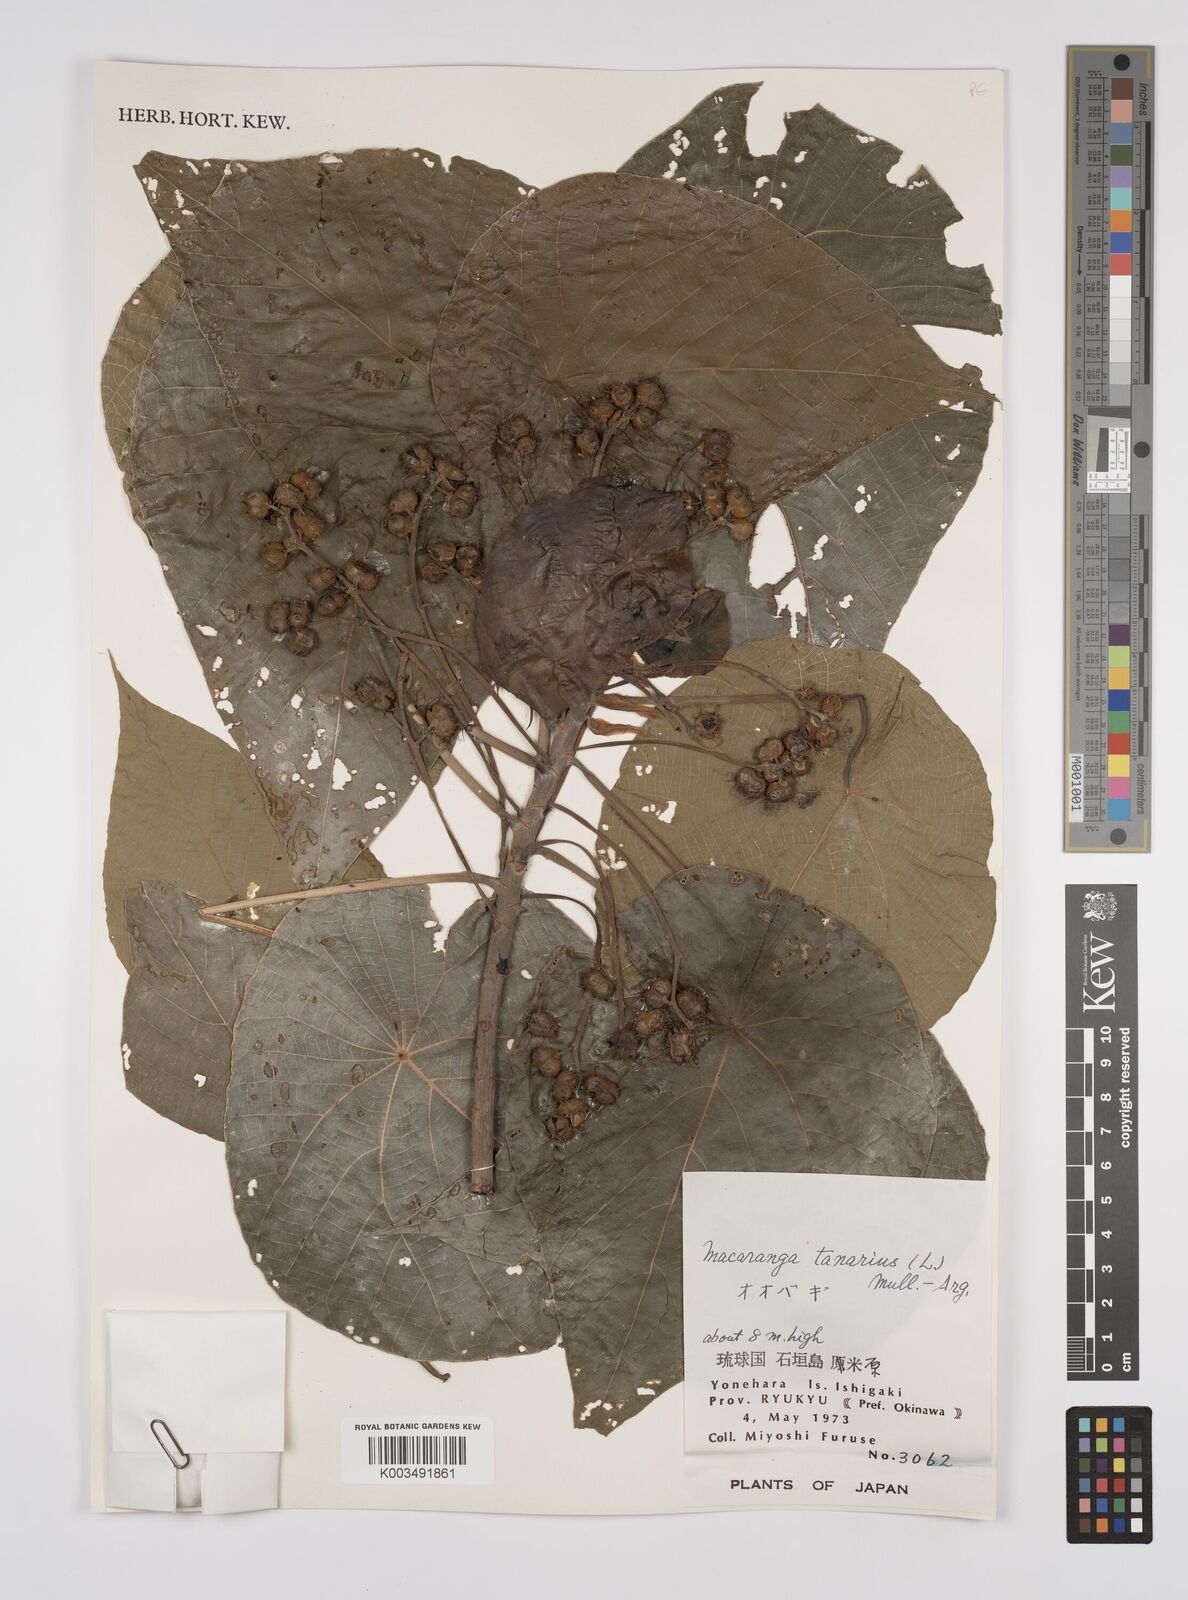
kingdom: Plantae
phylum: Tracheophyta
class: Magnoliopsida
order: Malpighiales
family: Euphorbiaceae
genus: Macaranga
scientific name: Macaranga tanarius
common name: Parasol leaf tree
